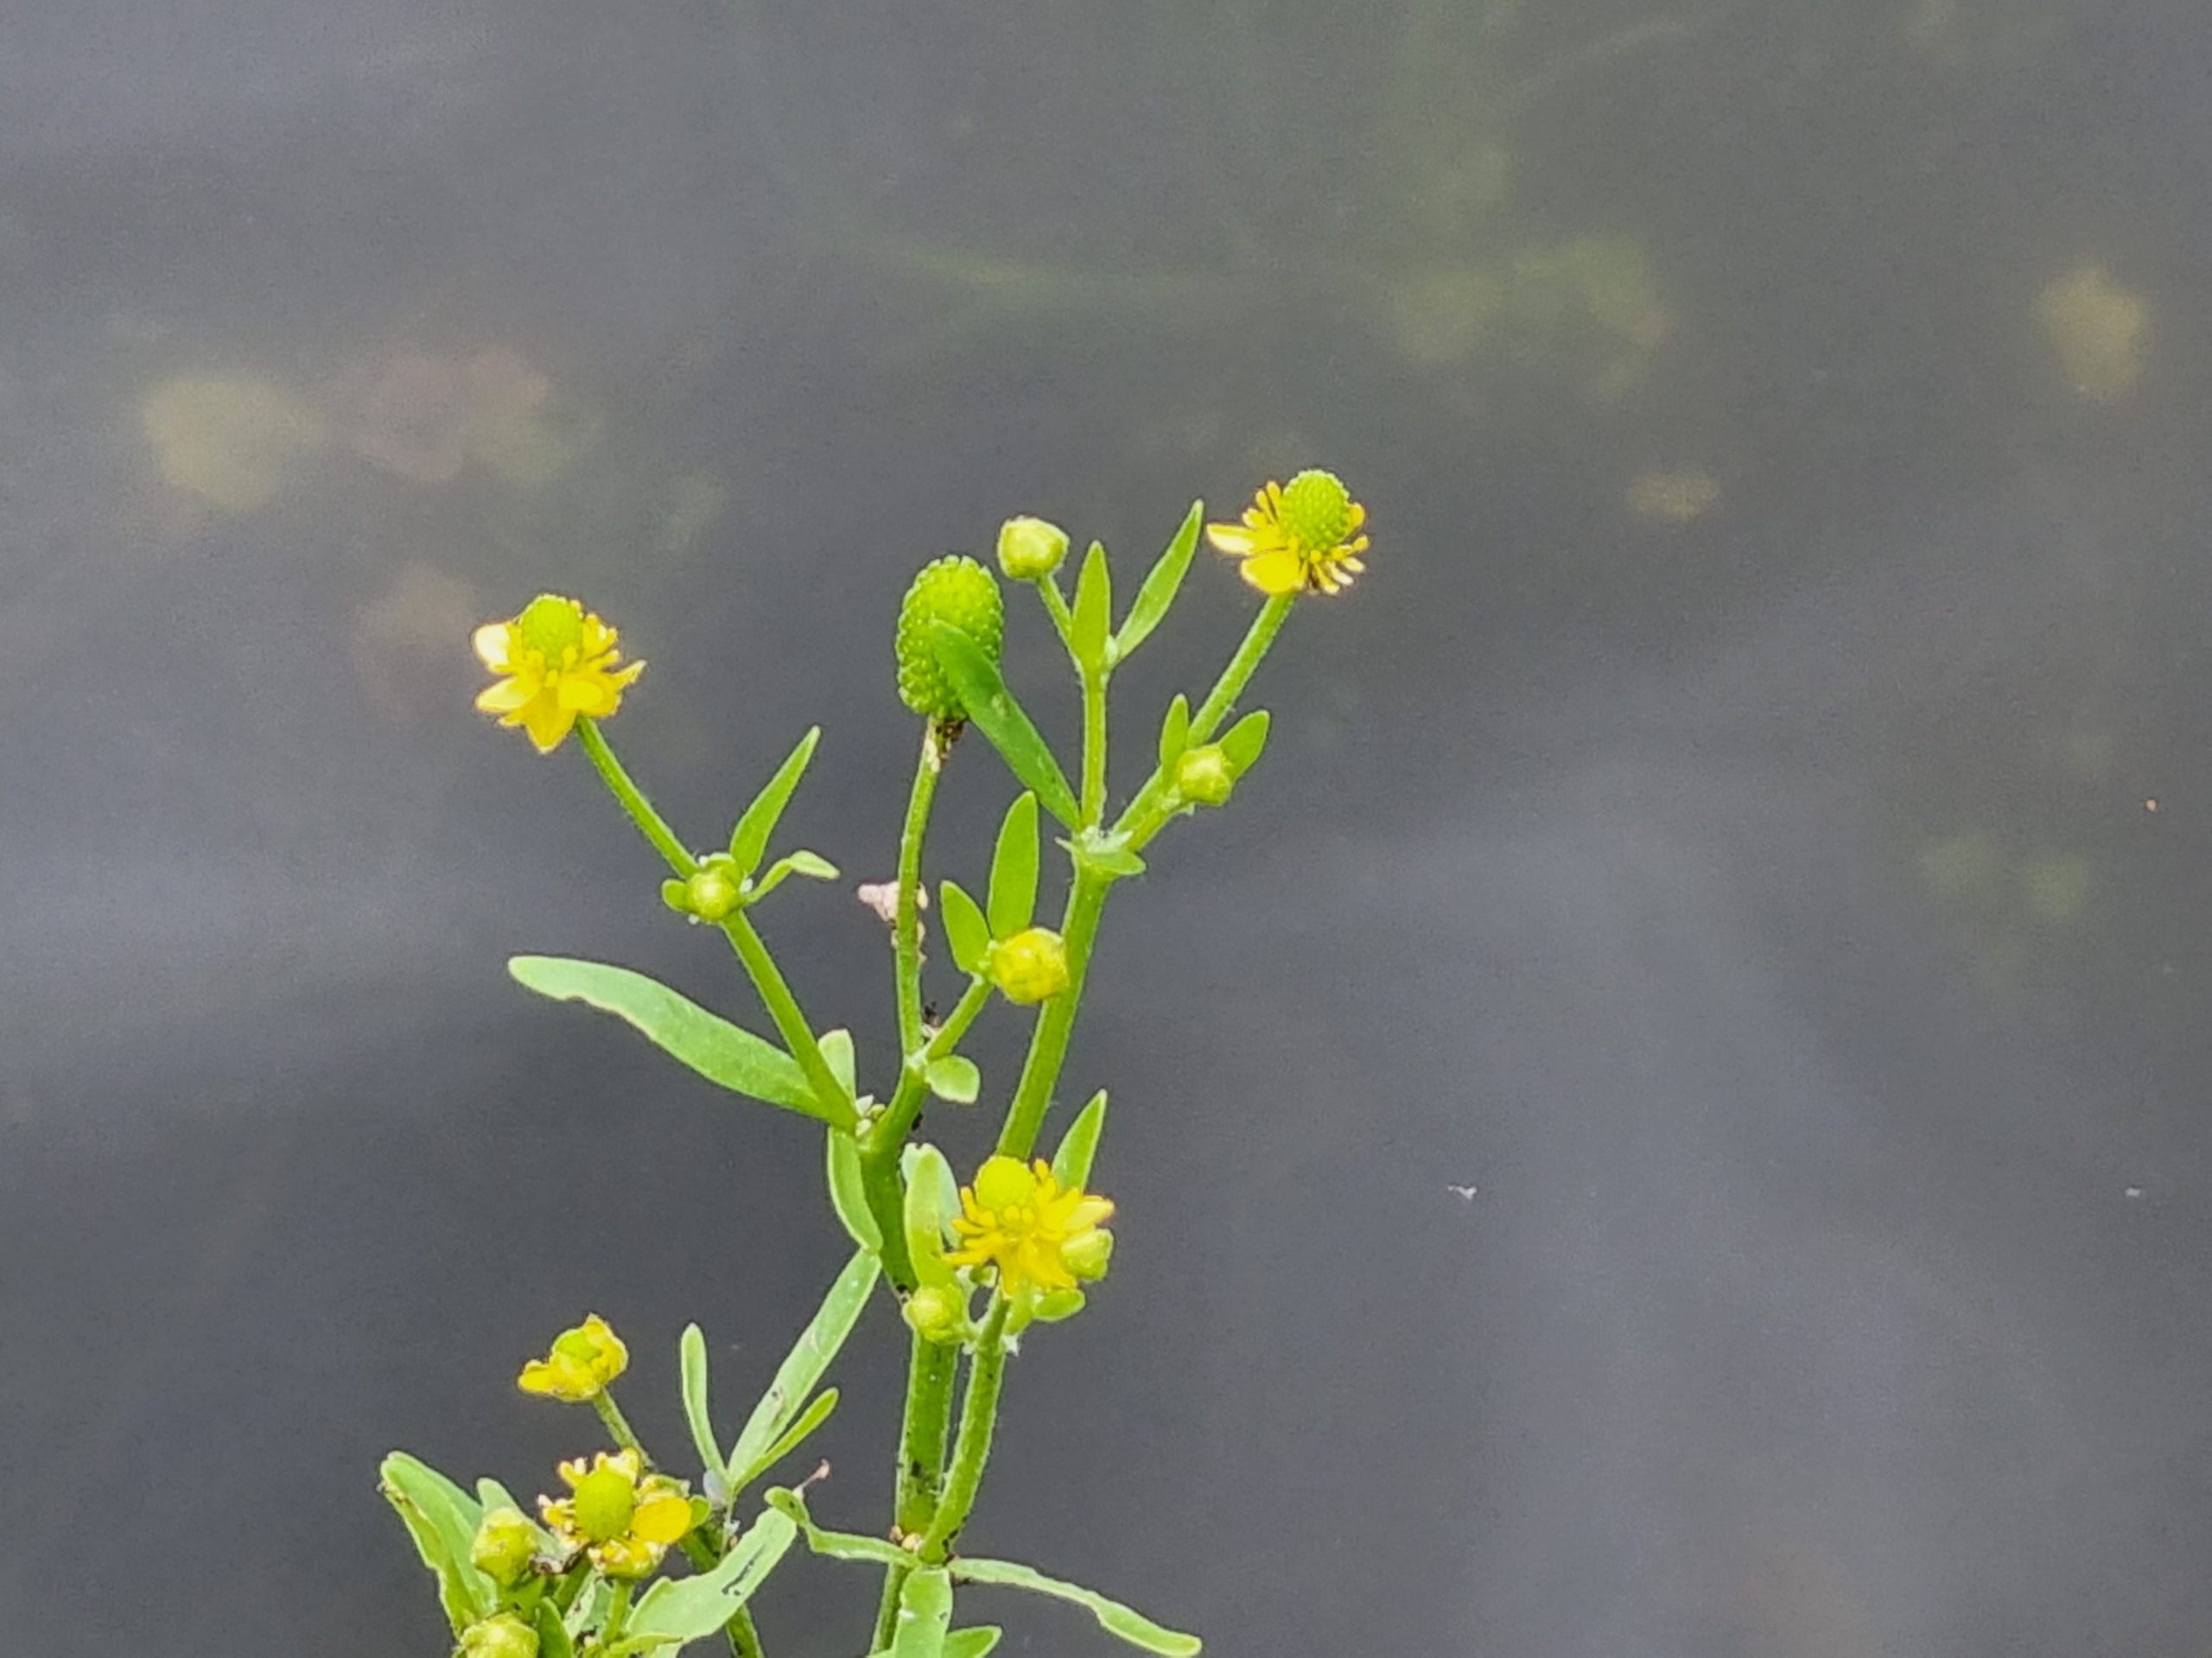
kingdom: Plantae
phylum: Tracheophyta
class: Magnoliopsida
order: Ranunculales
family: Ranunculaceae
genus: Ranunculus
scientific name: Ranunculus sceleratus
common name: Tigger-ranunkel
